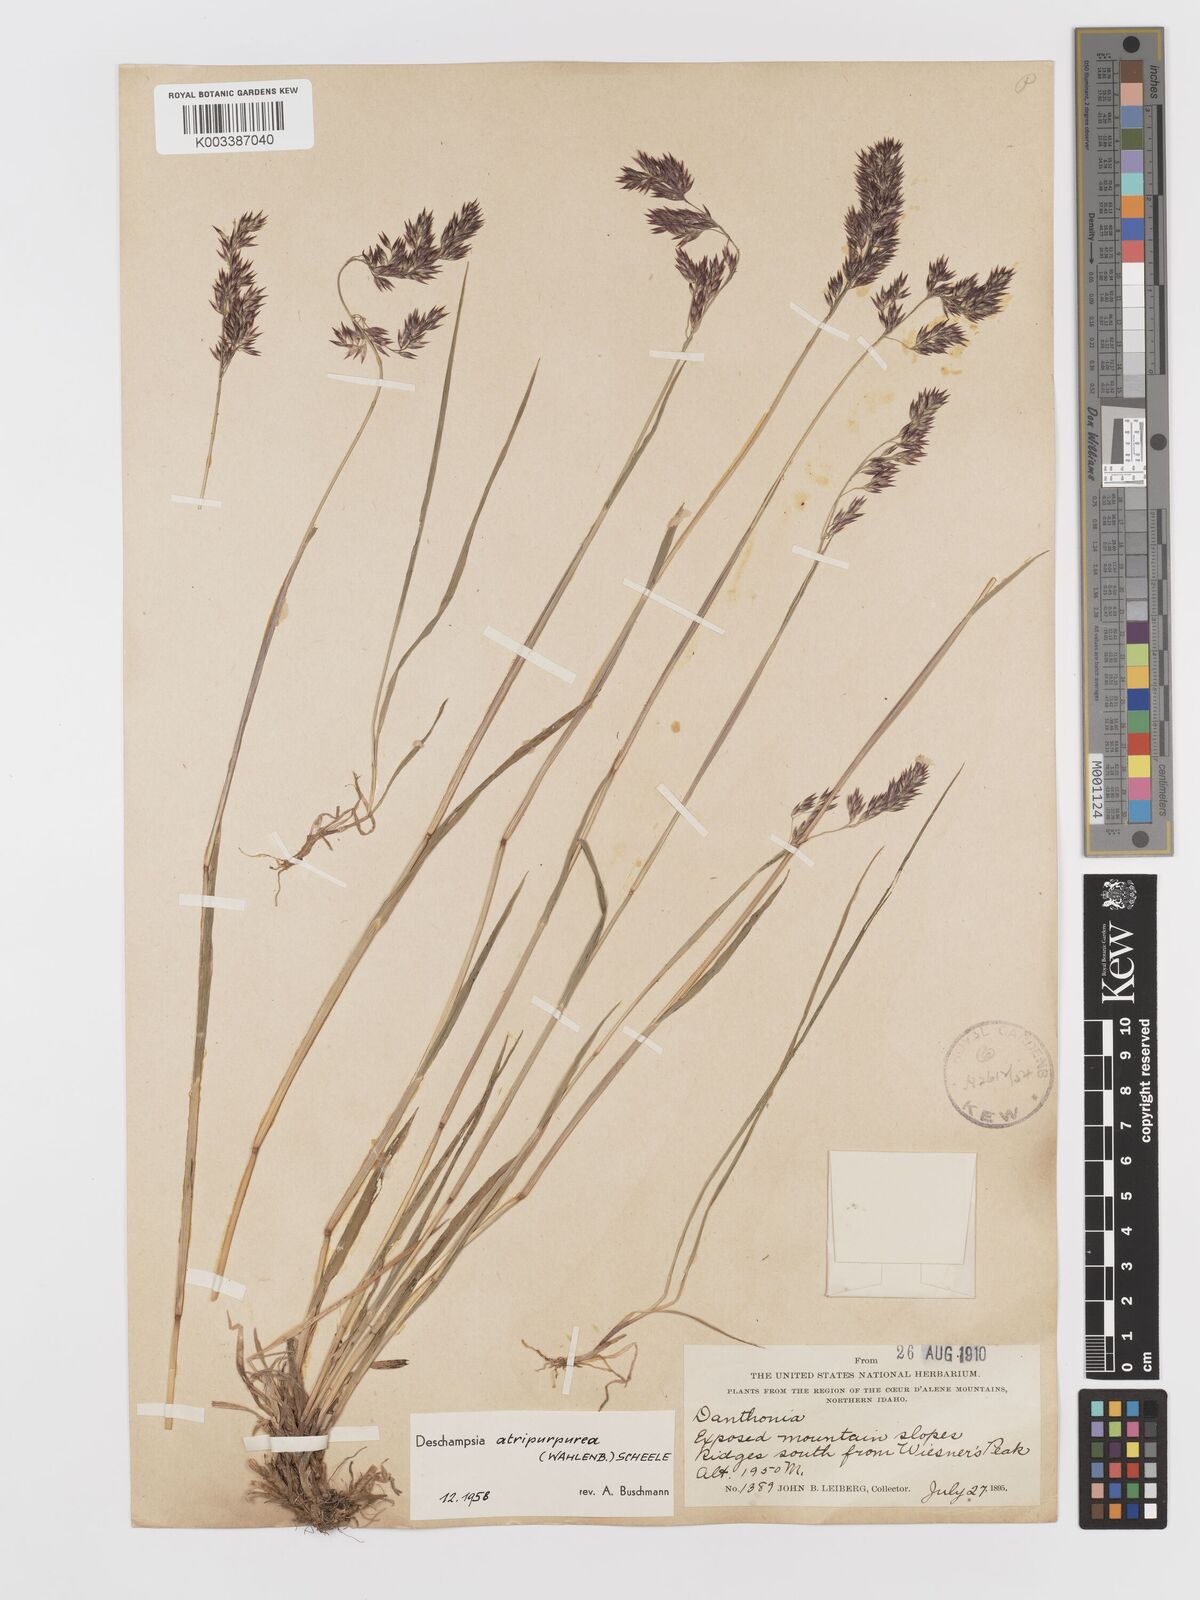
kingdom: Plantae
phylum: Tracheophyta
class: Liliopsida
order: Poales
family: Poaceae
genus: Vahlodea
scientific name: Vahlodea atropurpurea
